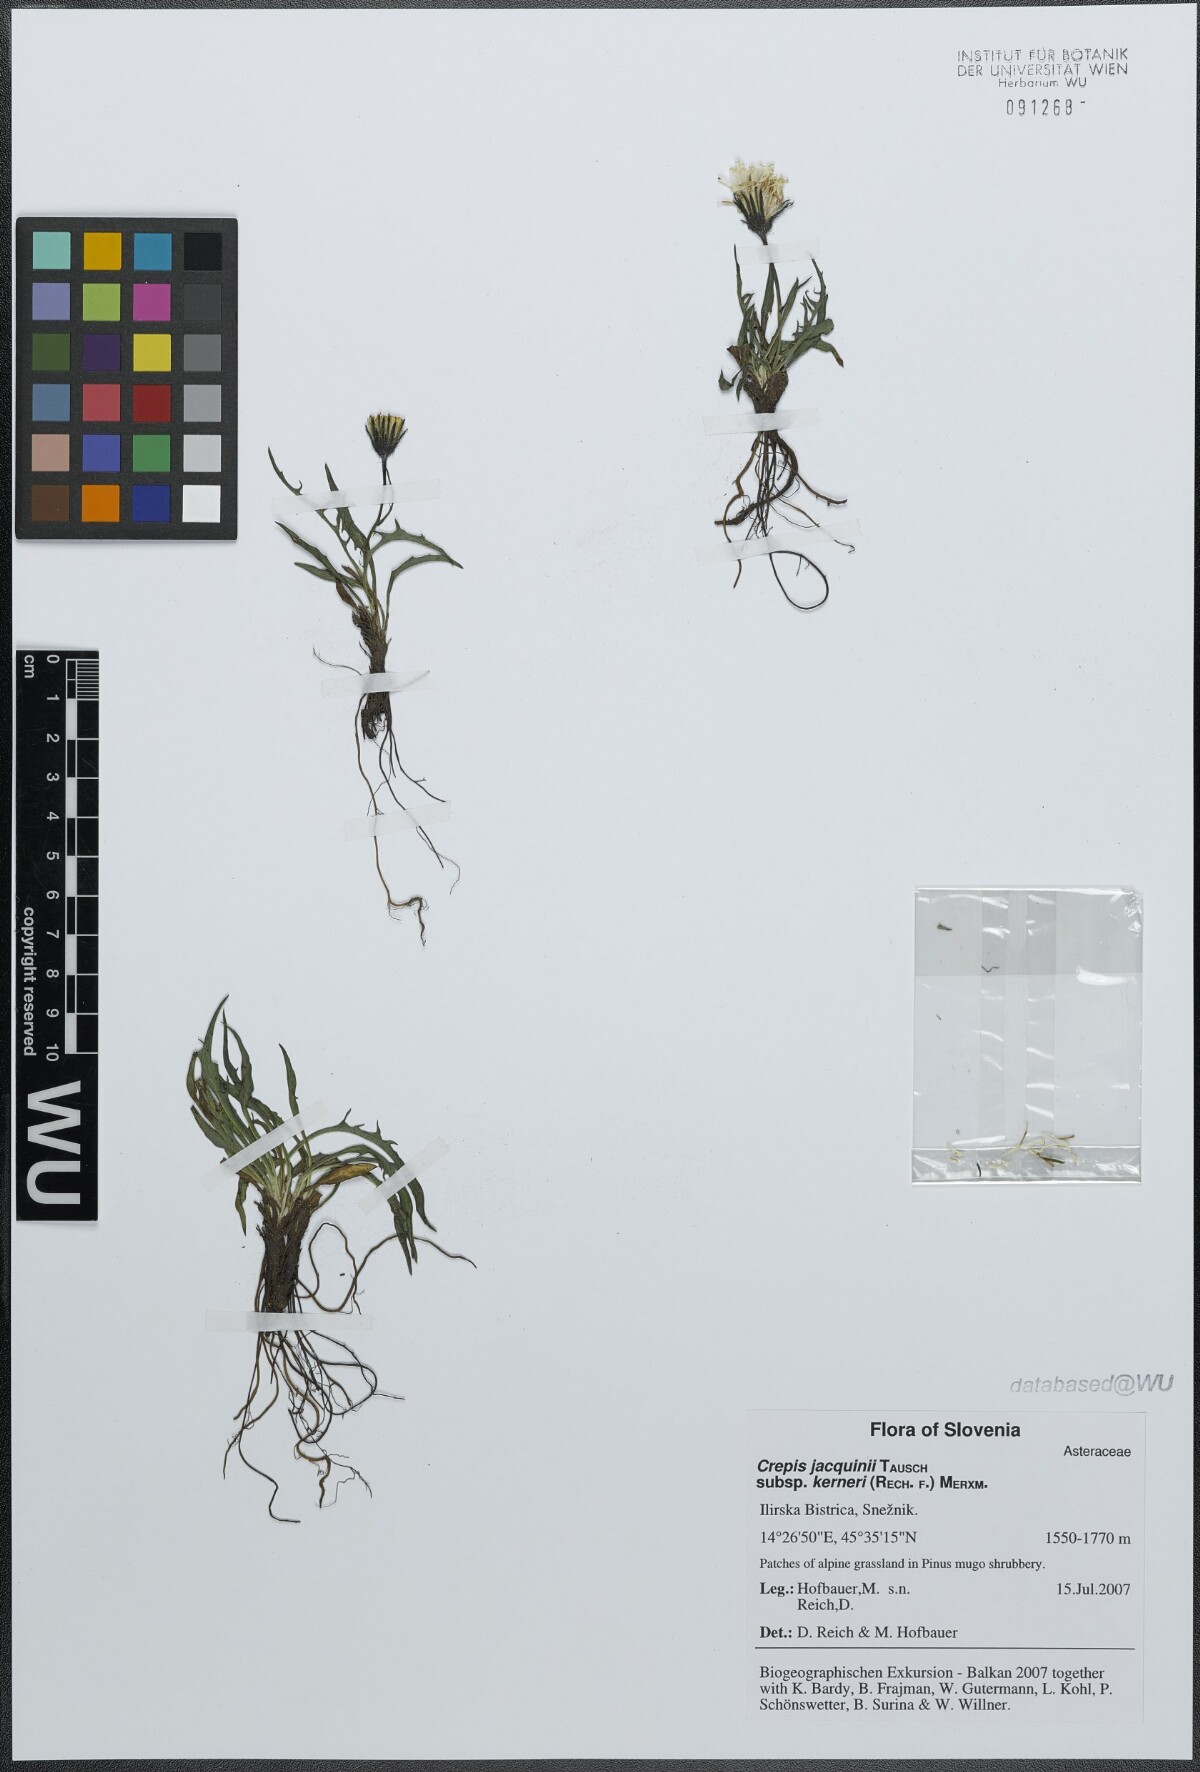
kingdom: Plantae
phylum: Tracheophyta
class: Magnoliopsida
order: Asterales
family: Asteraceae
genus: Crepis
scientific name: Crepis jacquinii
